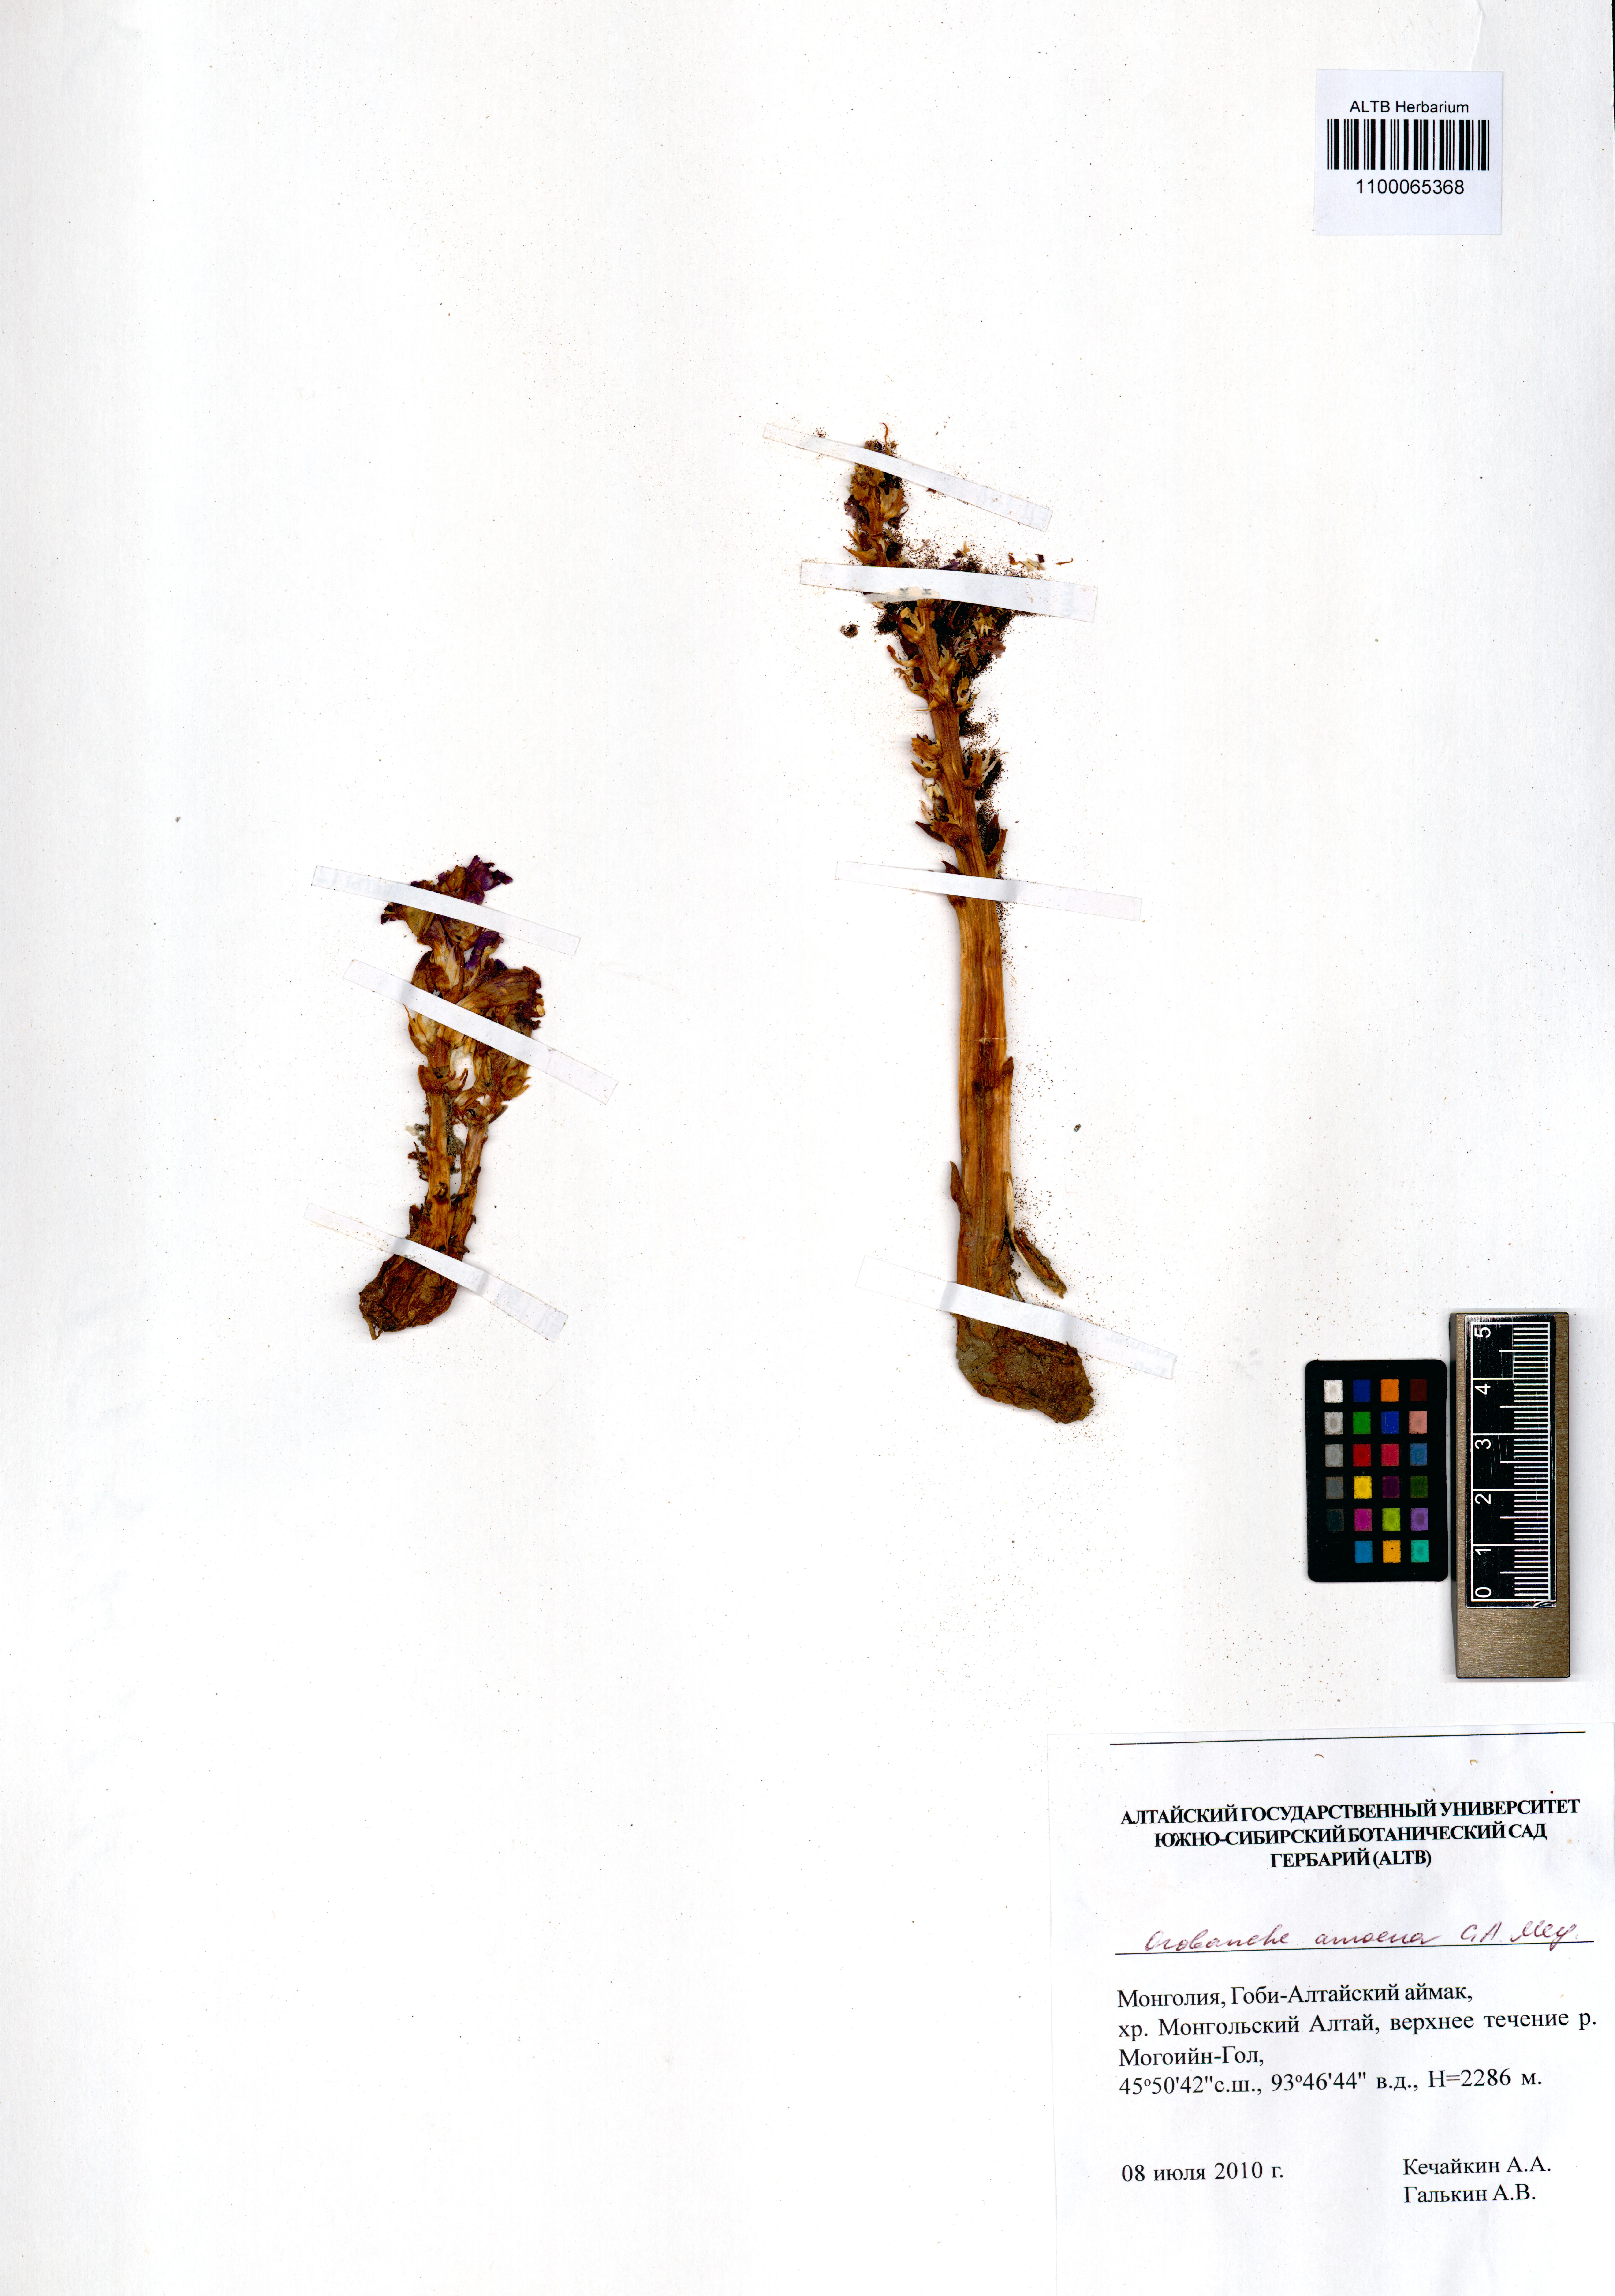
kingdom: Plantae
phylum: Tracheophyta
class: Magnoliopsida
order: Lamiales
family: Orobanchaceae
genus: Orobanche
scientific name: Orobanche amoena
